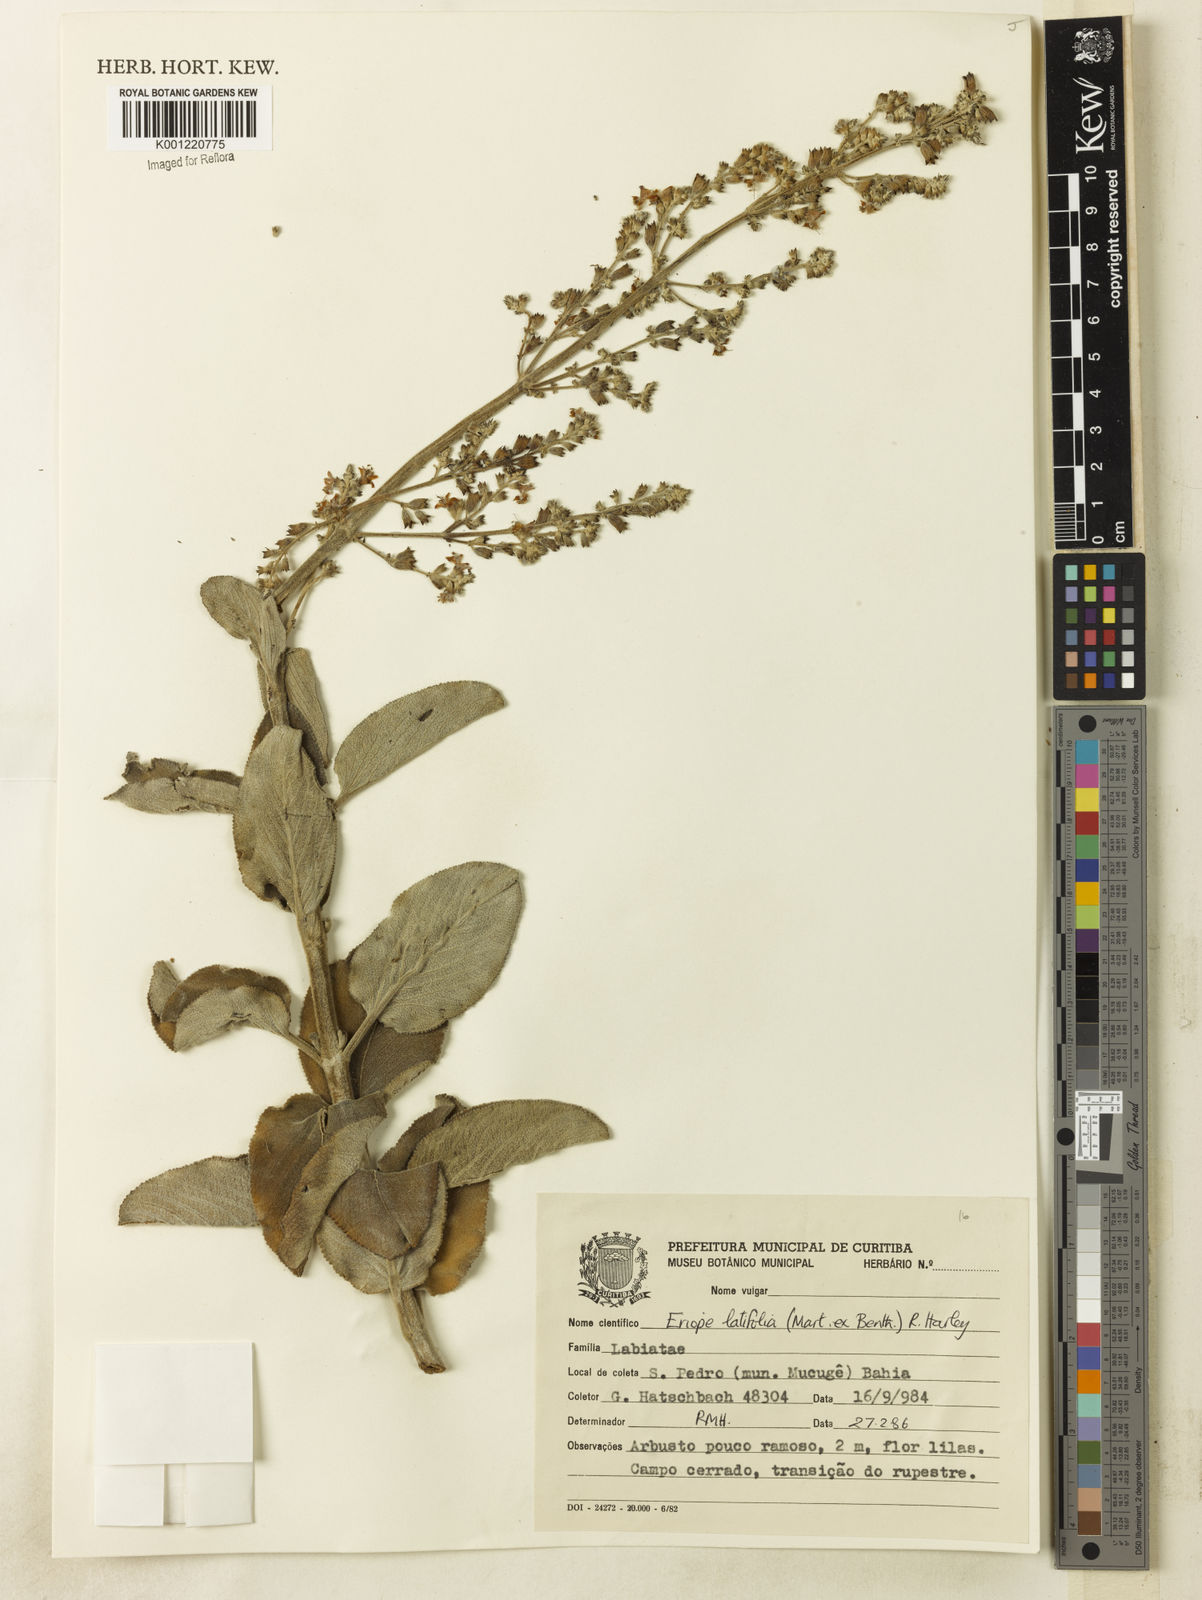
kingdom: Plantae
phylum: Tracheophyta
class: Magnoliopsida
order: Lamiales
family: Lamiaceae
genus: Eriope
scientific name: Eriope latifolia
